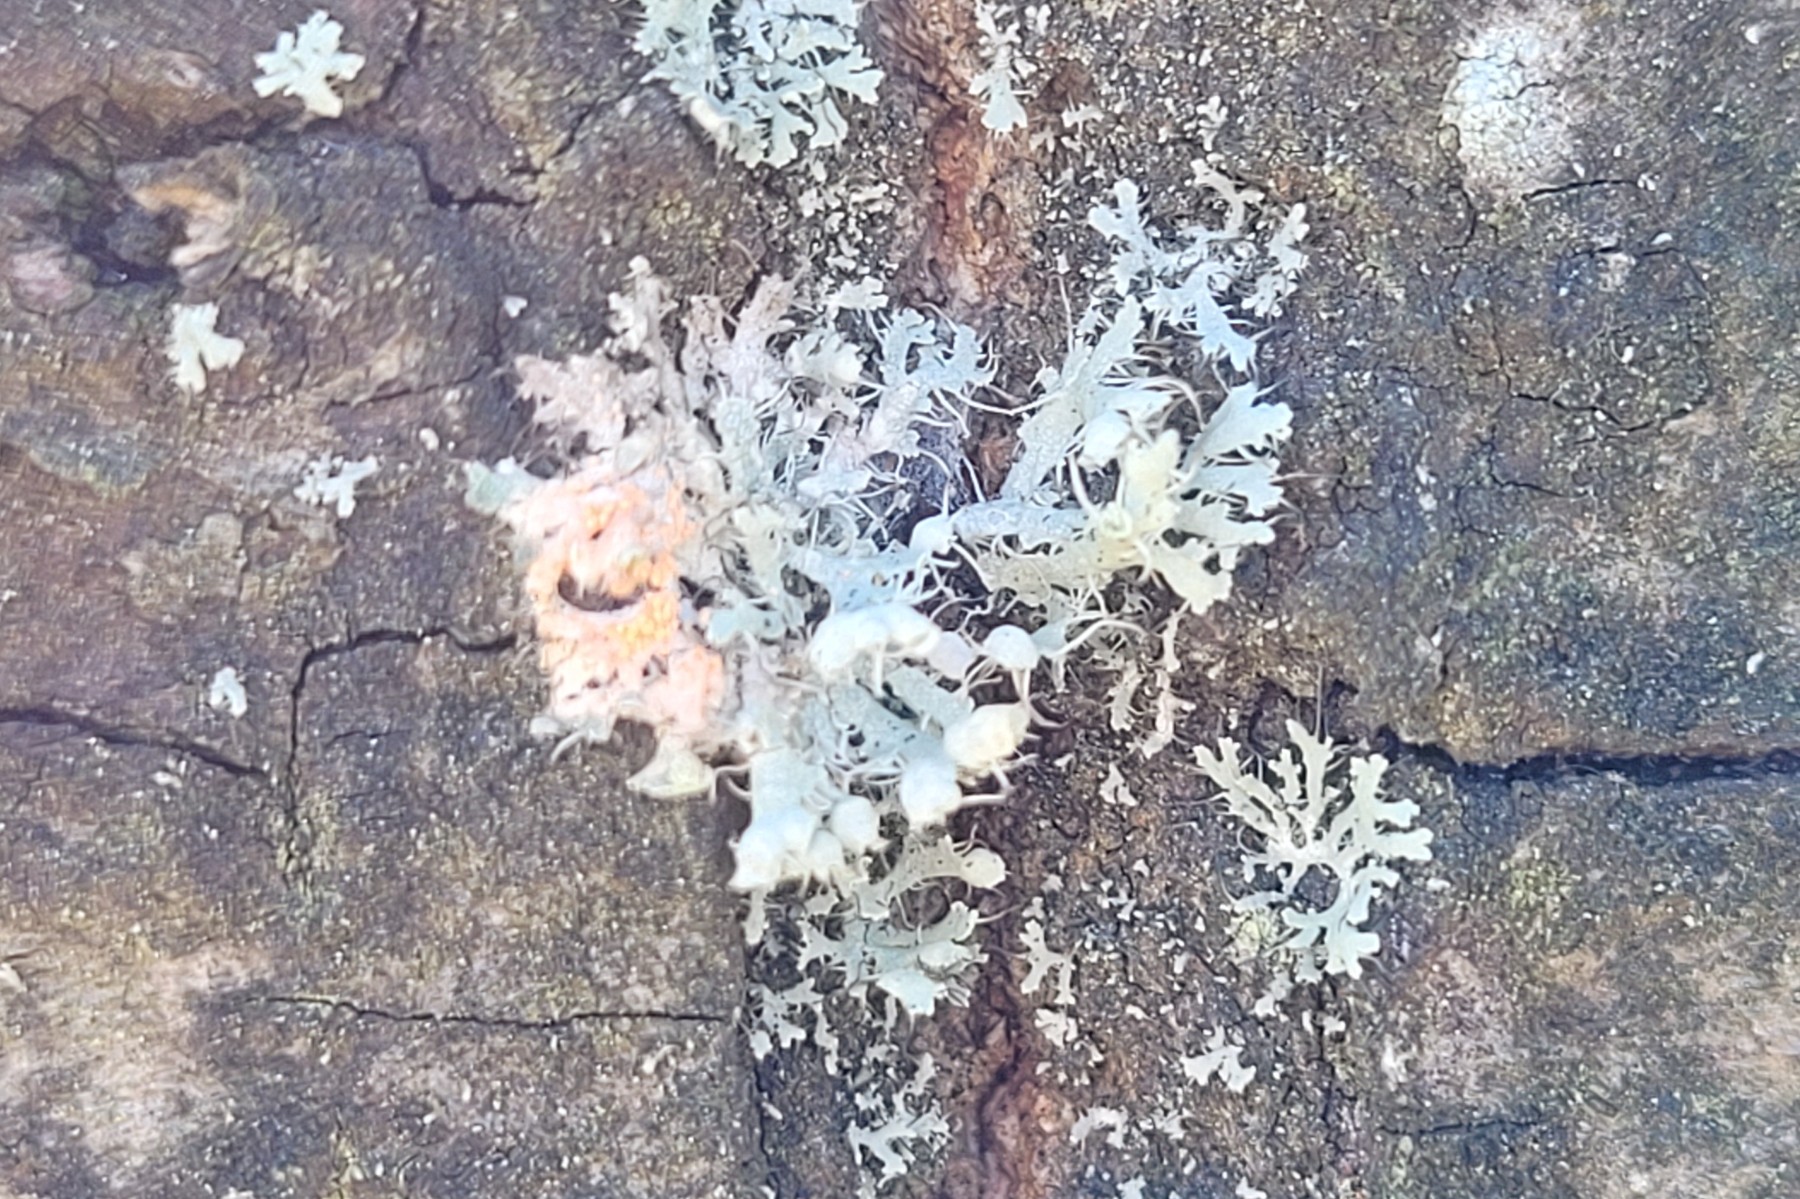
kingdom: Fungi
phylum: Basidiomycota
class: Agaricomycetes
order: Corticiales
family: Corticiaceae
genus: Erythricium
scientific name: Erythricium aurantiacum
